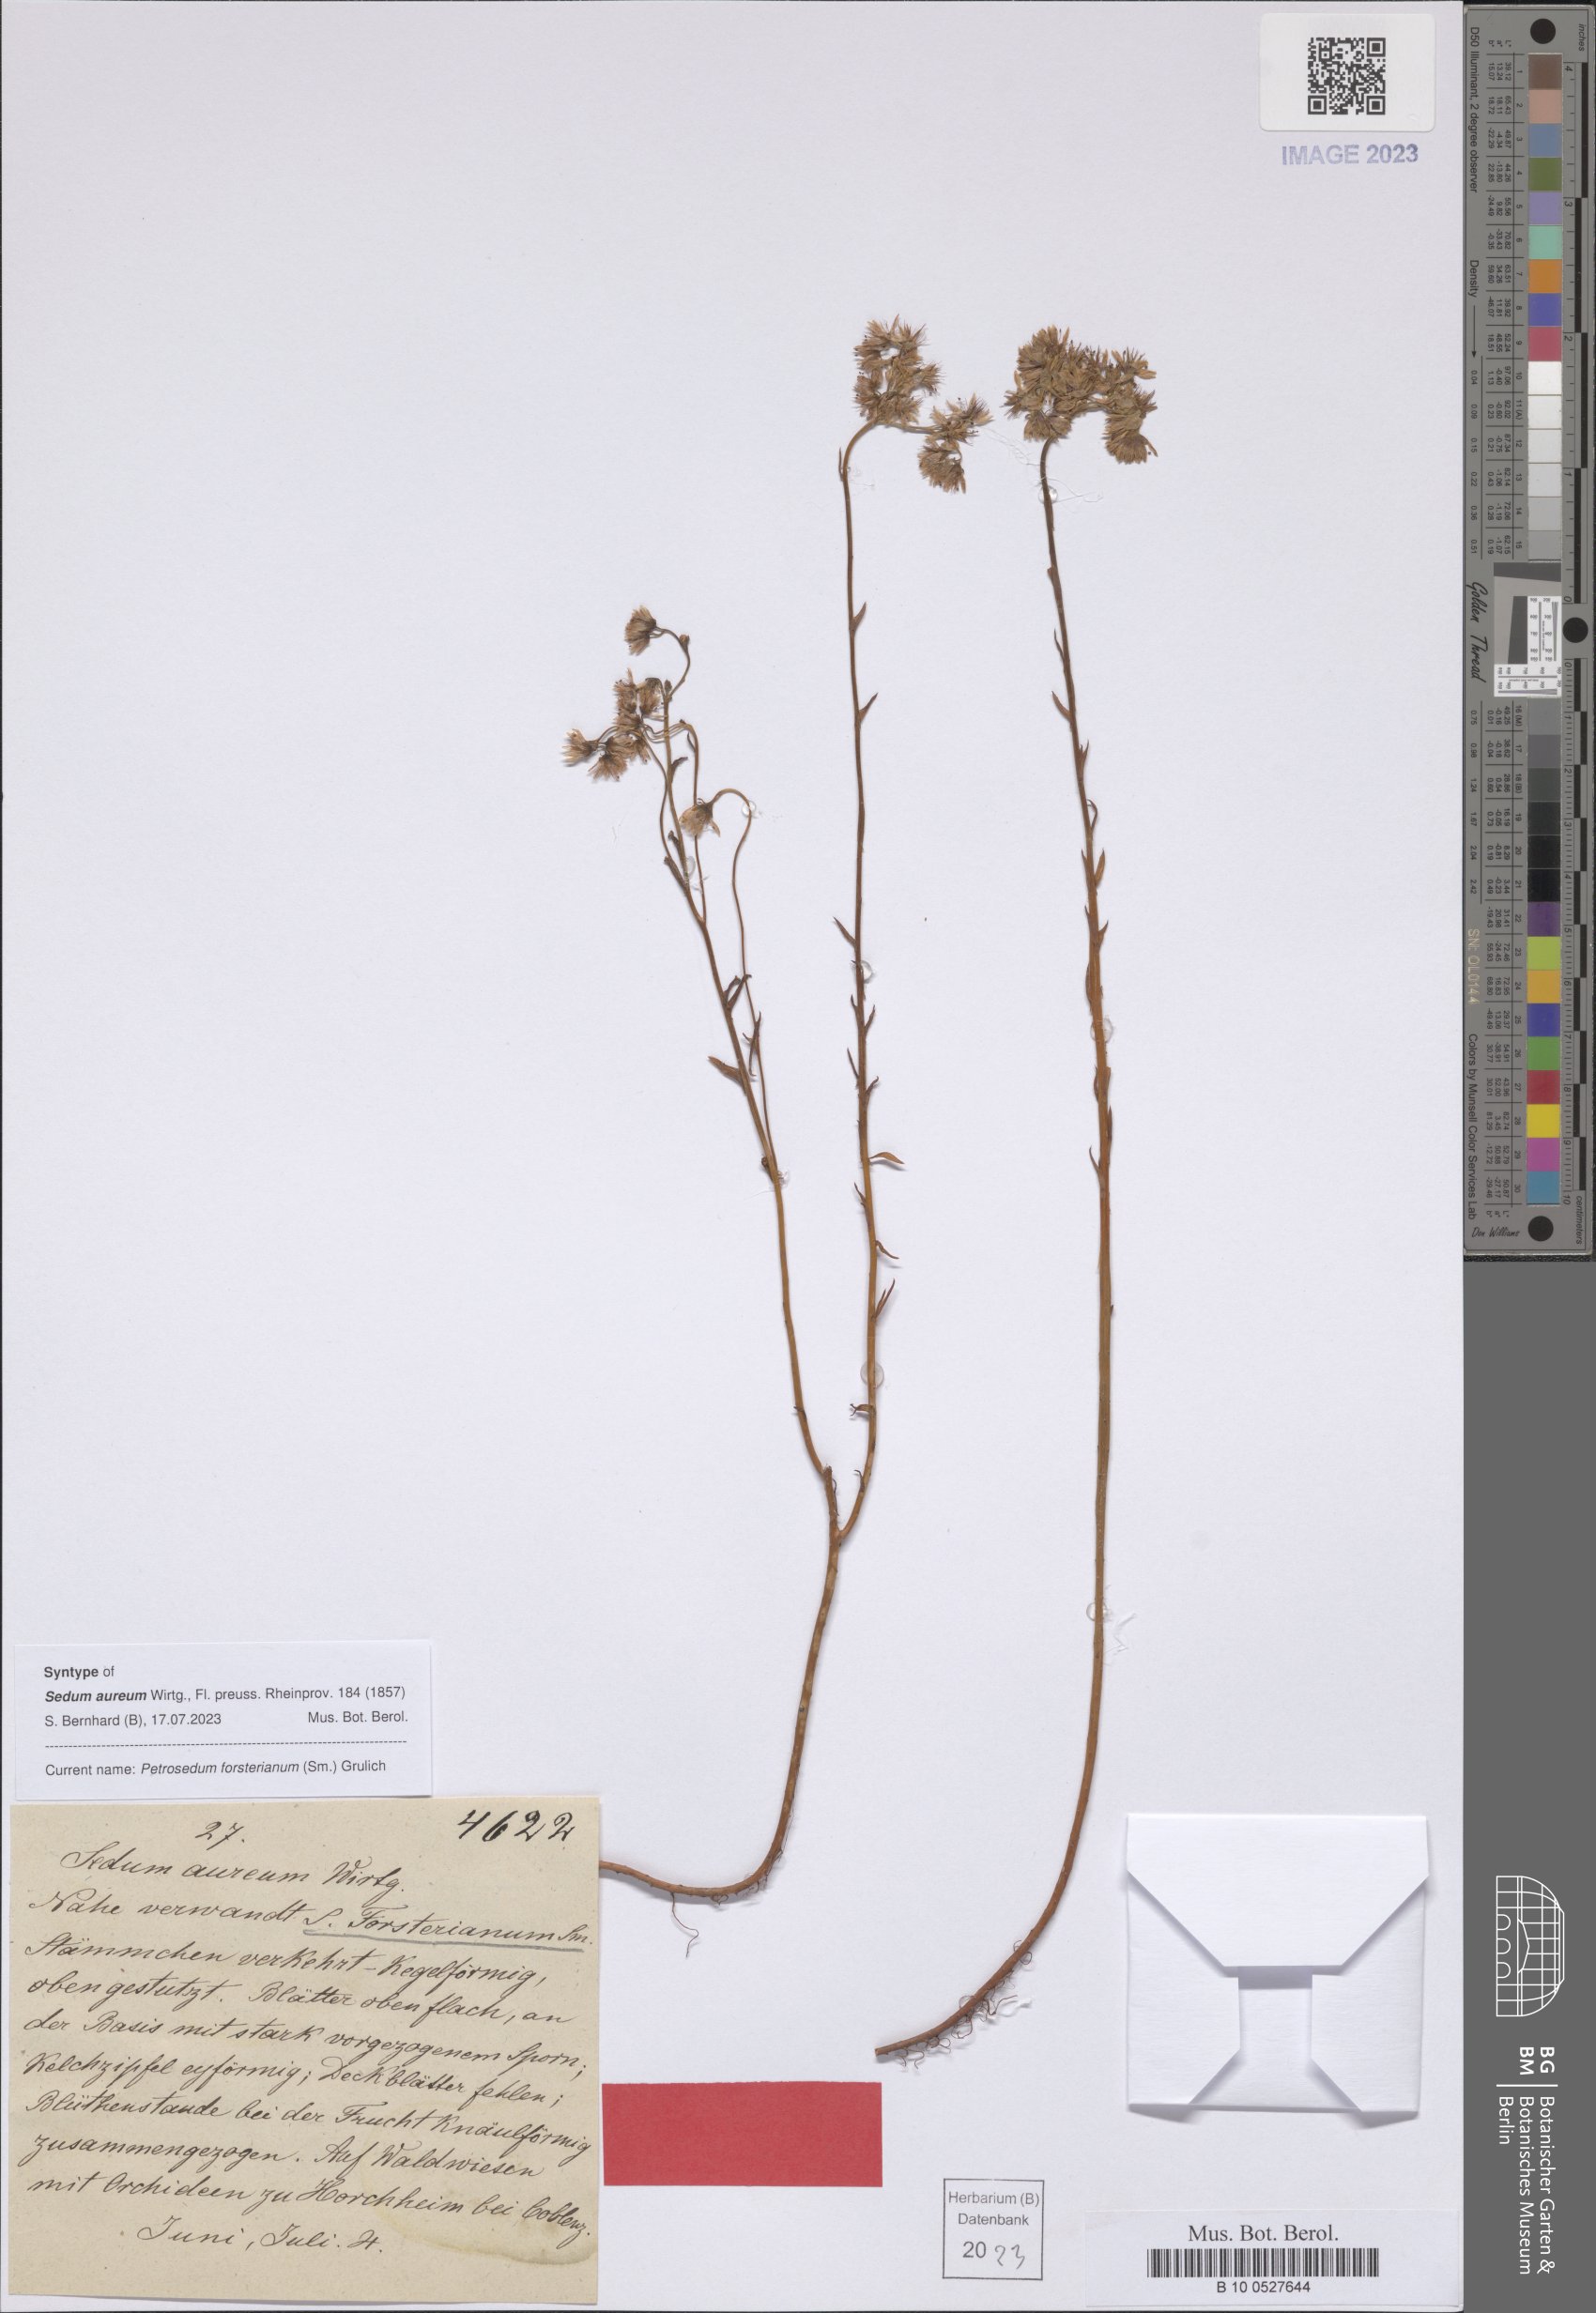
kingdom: Plantae
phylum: Tracheophyta
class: Magnoliopsida
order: Saxifragales
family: Crassulaceae
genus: Petrosedum
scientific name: Petrosedum forsterianum
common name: Forster's stonecrop
